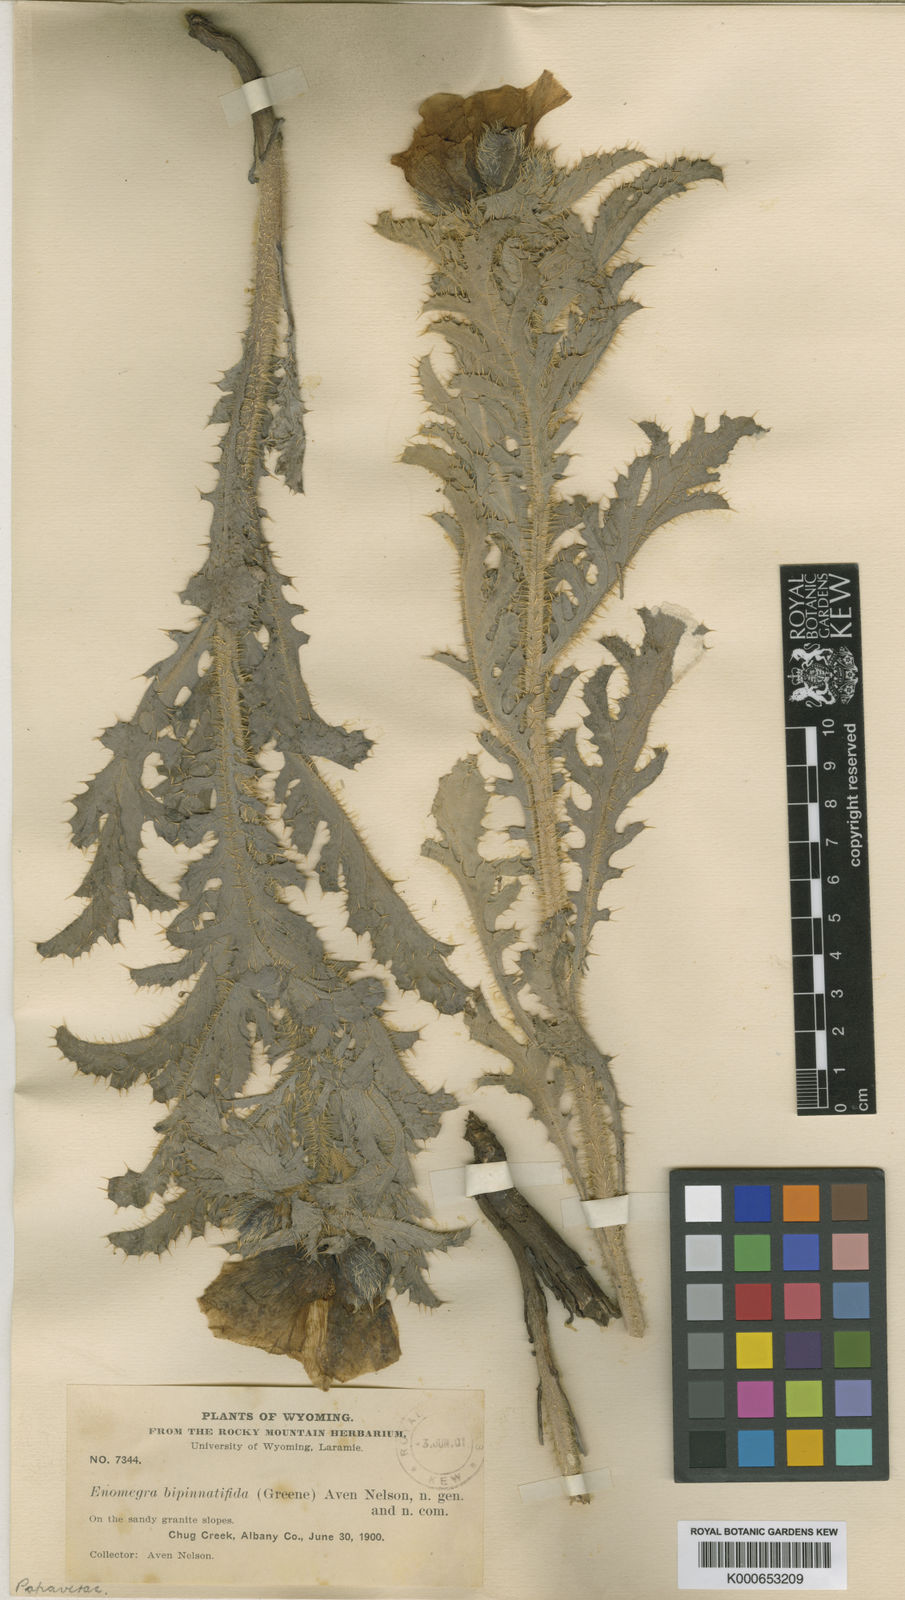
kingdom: Plantae
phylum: Tracheophyta
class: Magnoliopsida
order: Ranunculales
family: Papaveraceae
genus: Argemone
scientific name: Argemone hispida
